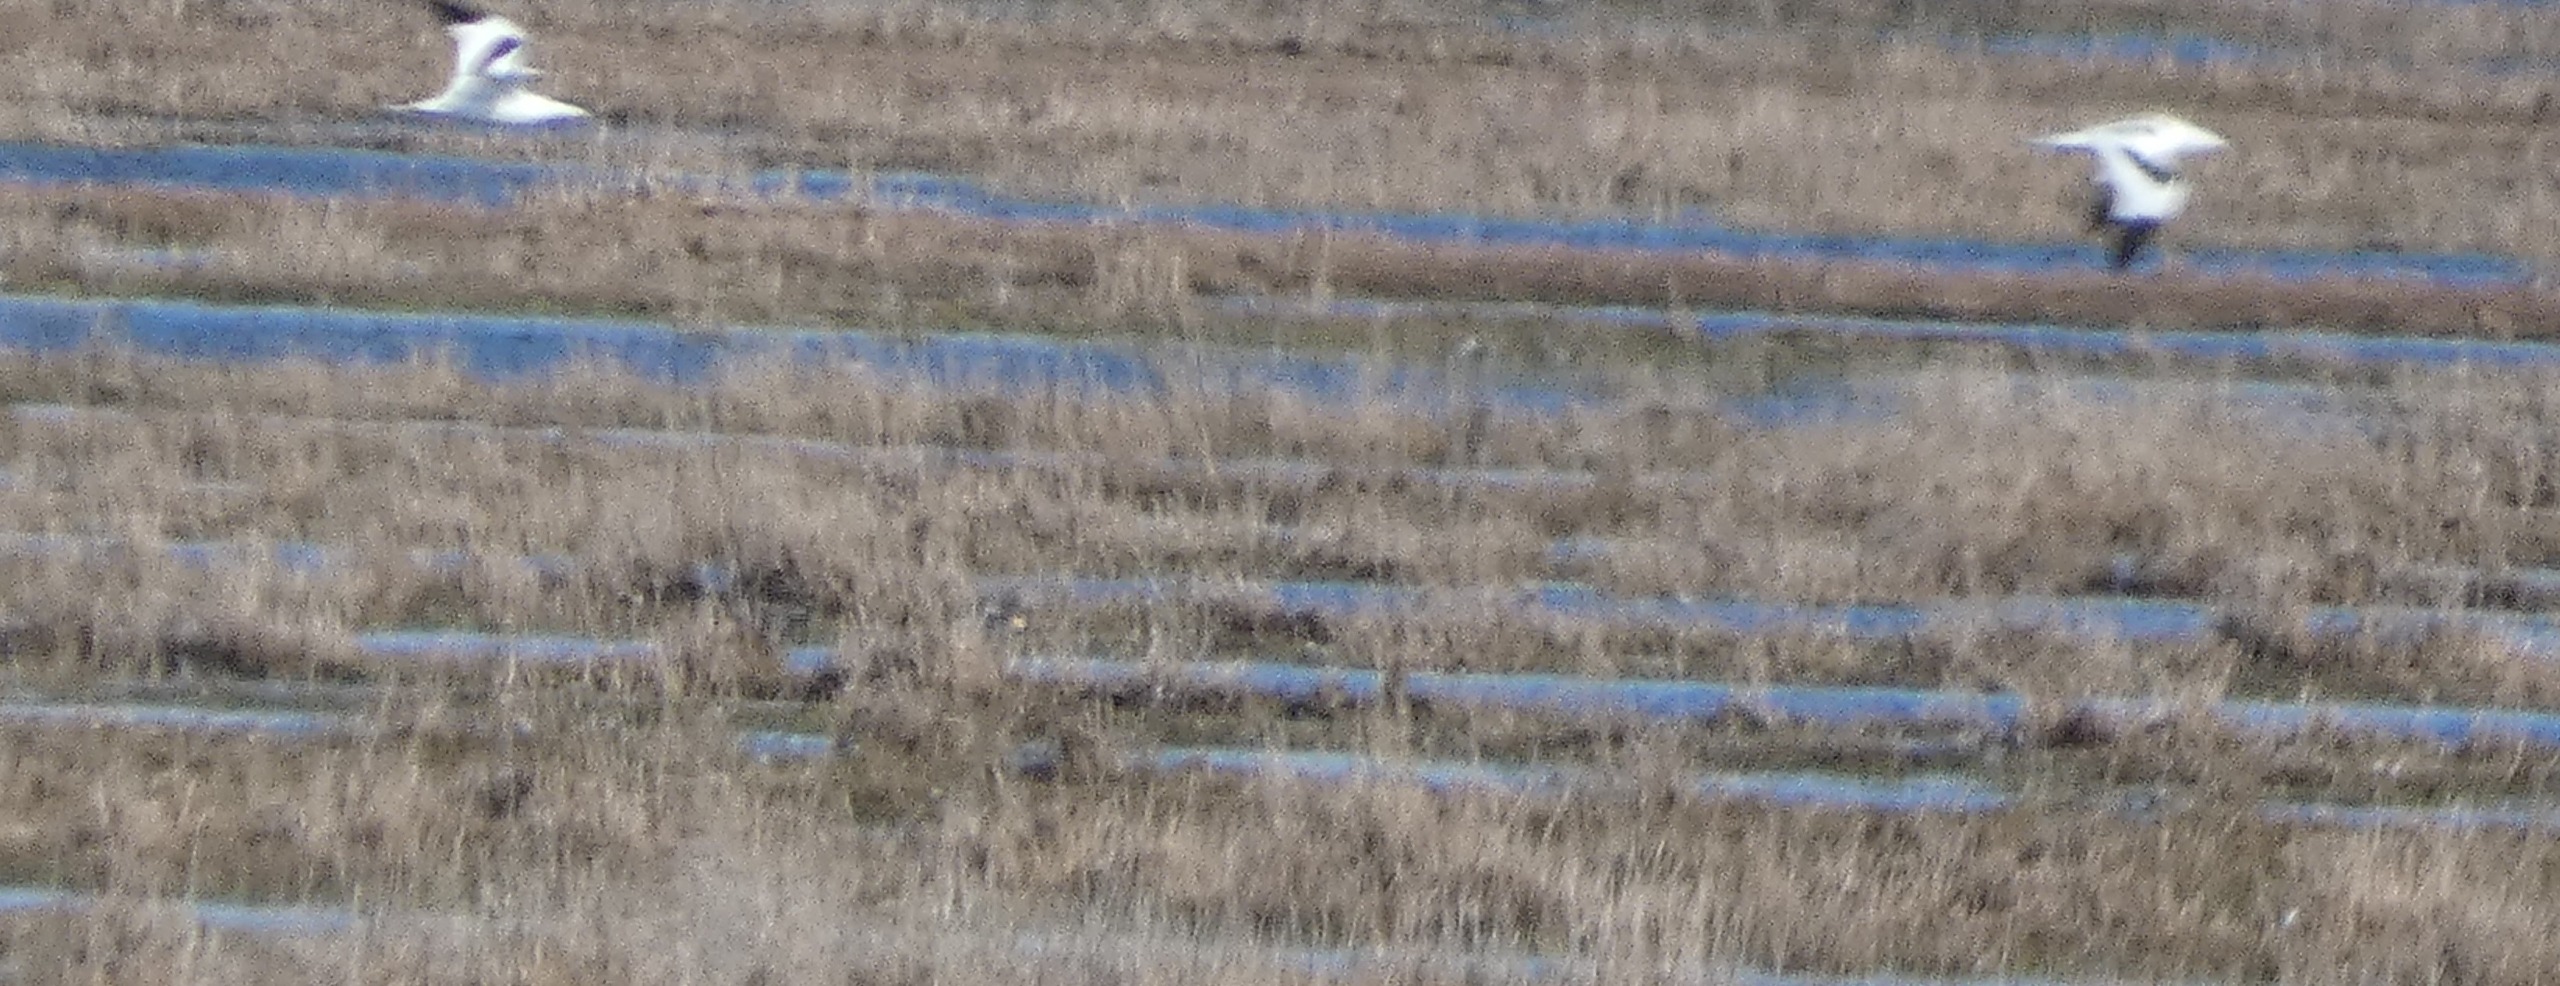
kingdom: Animalia
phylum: Chordata
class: Aves
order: Charadriiformes
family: Recurvirostridae
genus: Recurvirostra
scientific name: Recurvirostra avosetta
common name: Klyde
